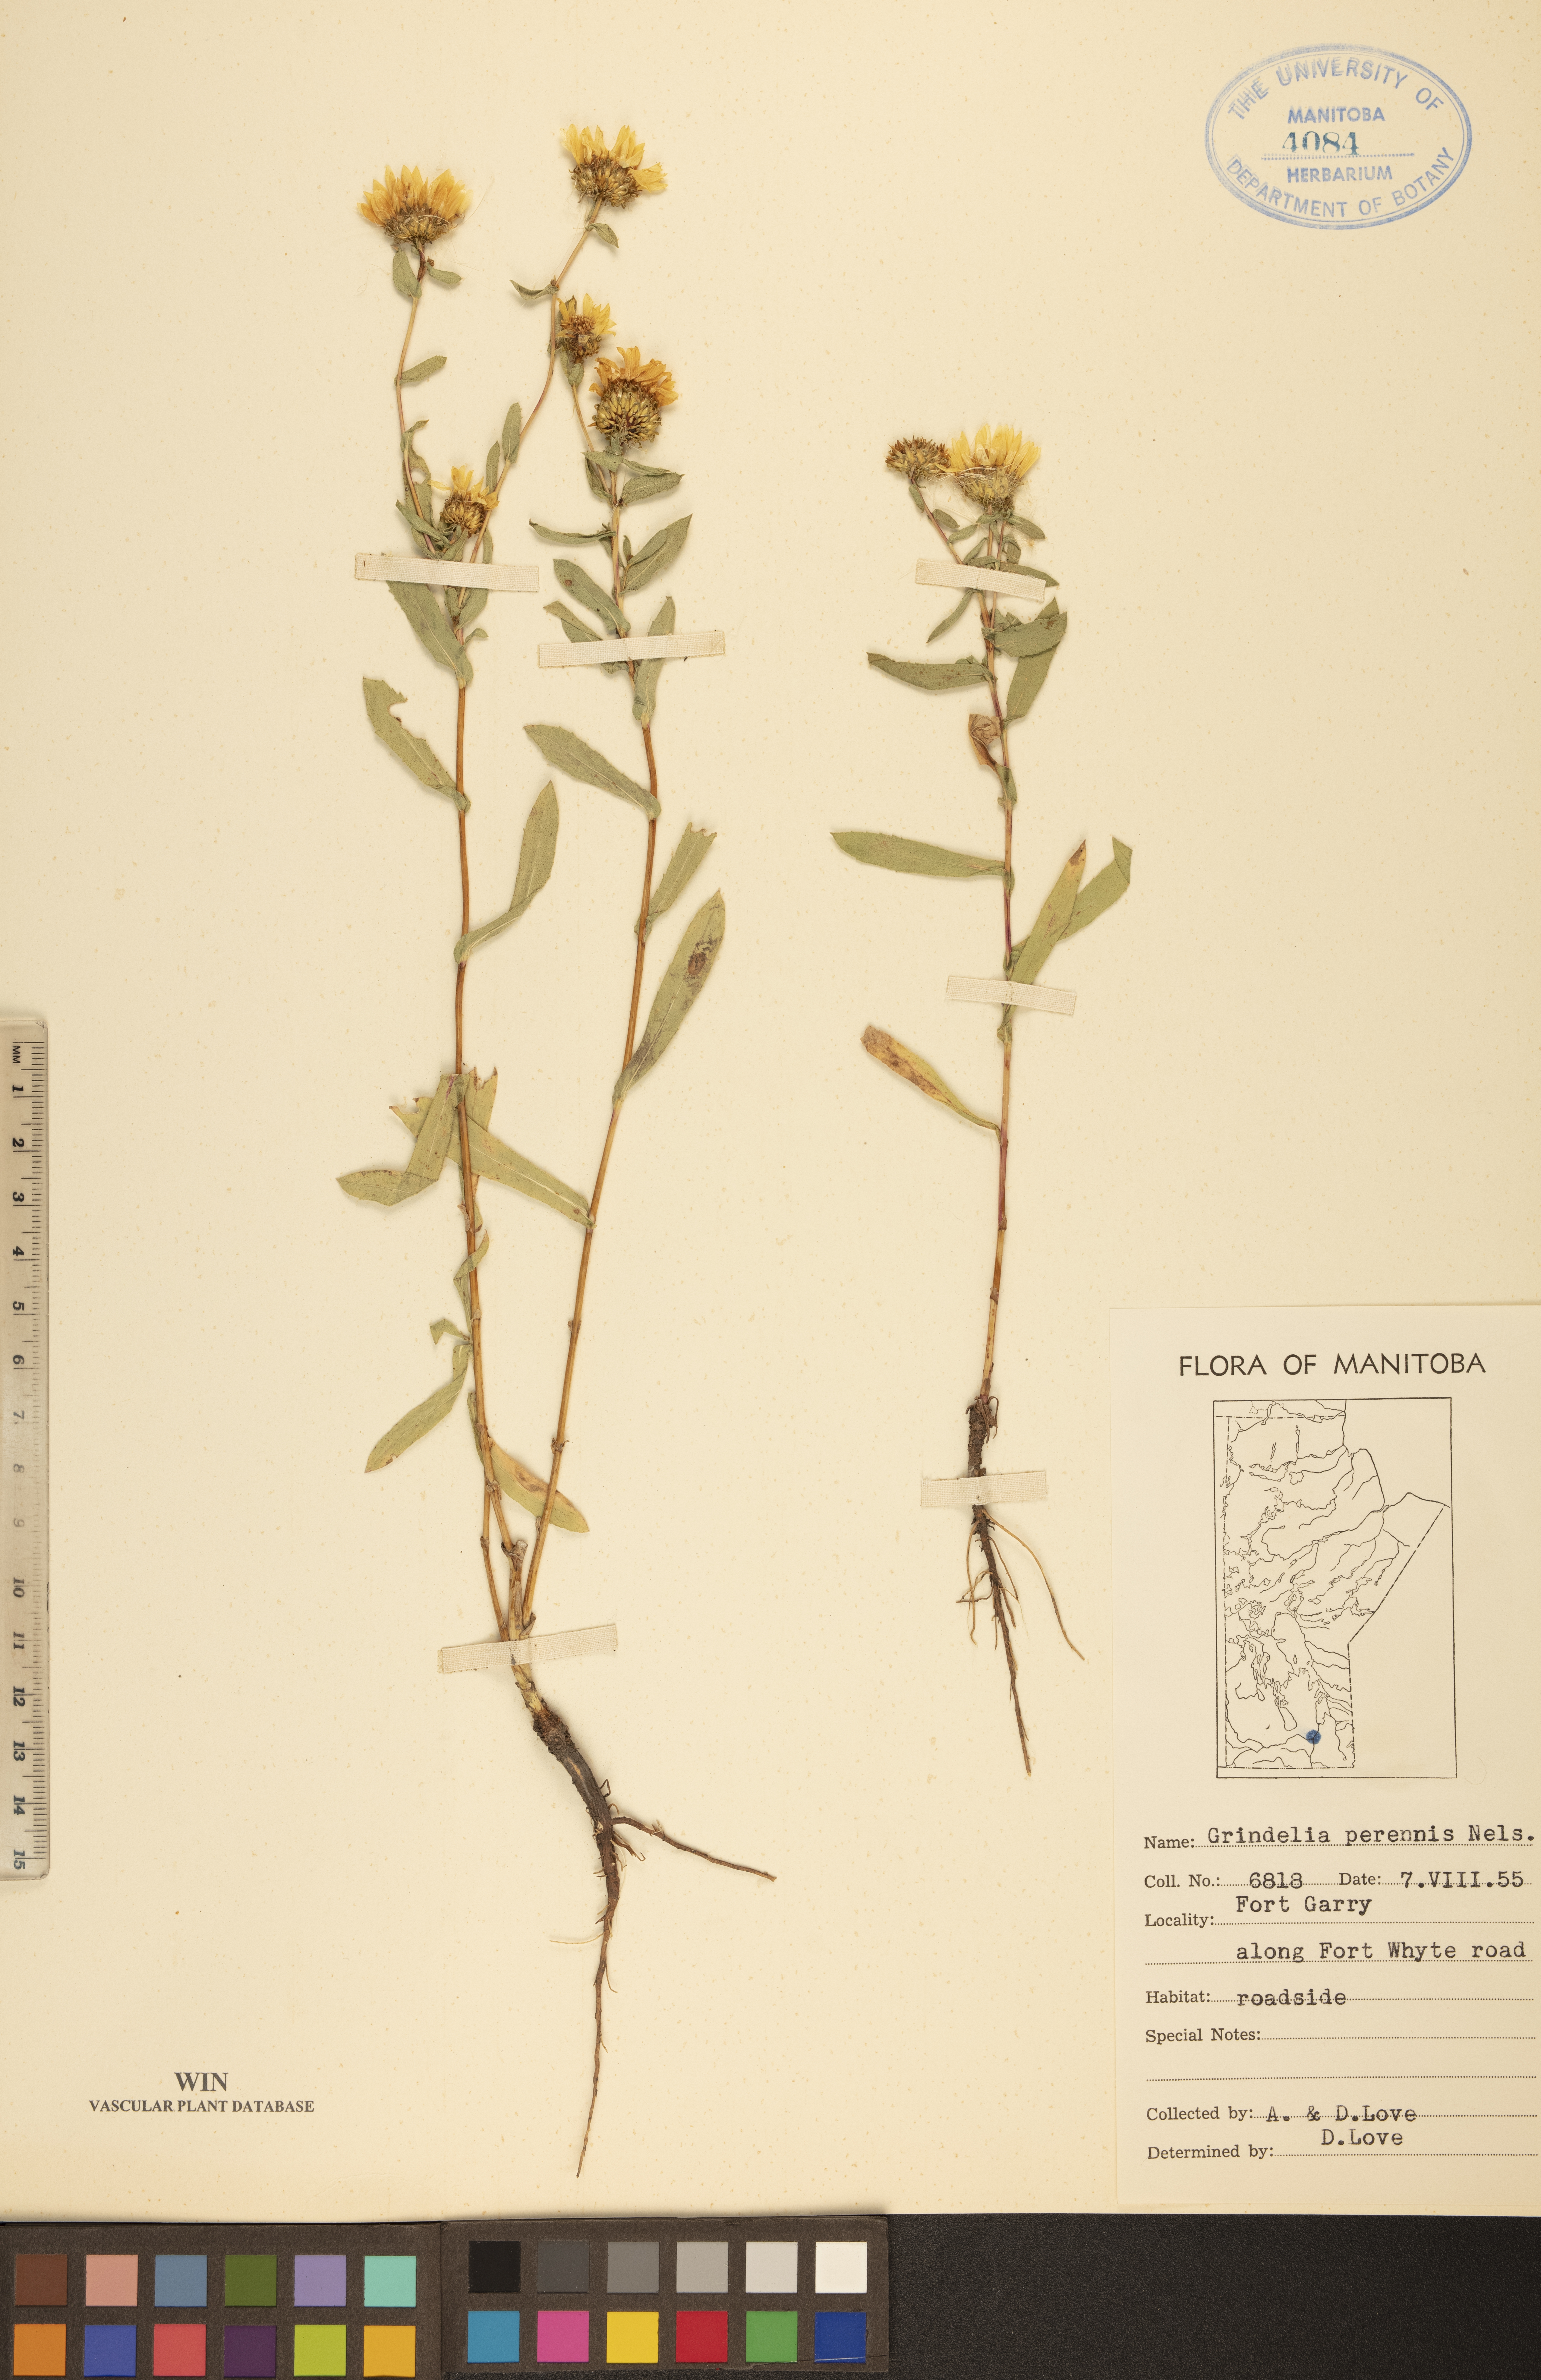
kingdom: Plantae
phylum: Tracheophyta
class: Magnoliopsida
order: Asterales
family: Asteraceae
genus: Grindelia
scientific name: Grindelia hirsutula
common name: Hairy gumweed
